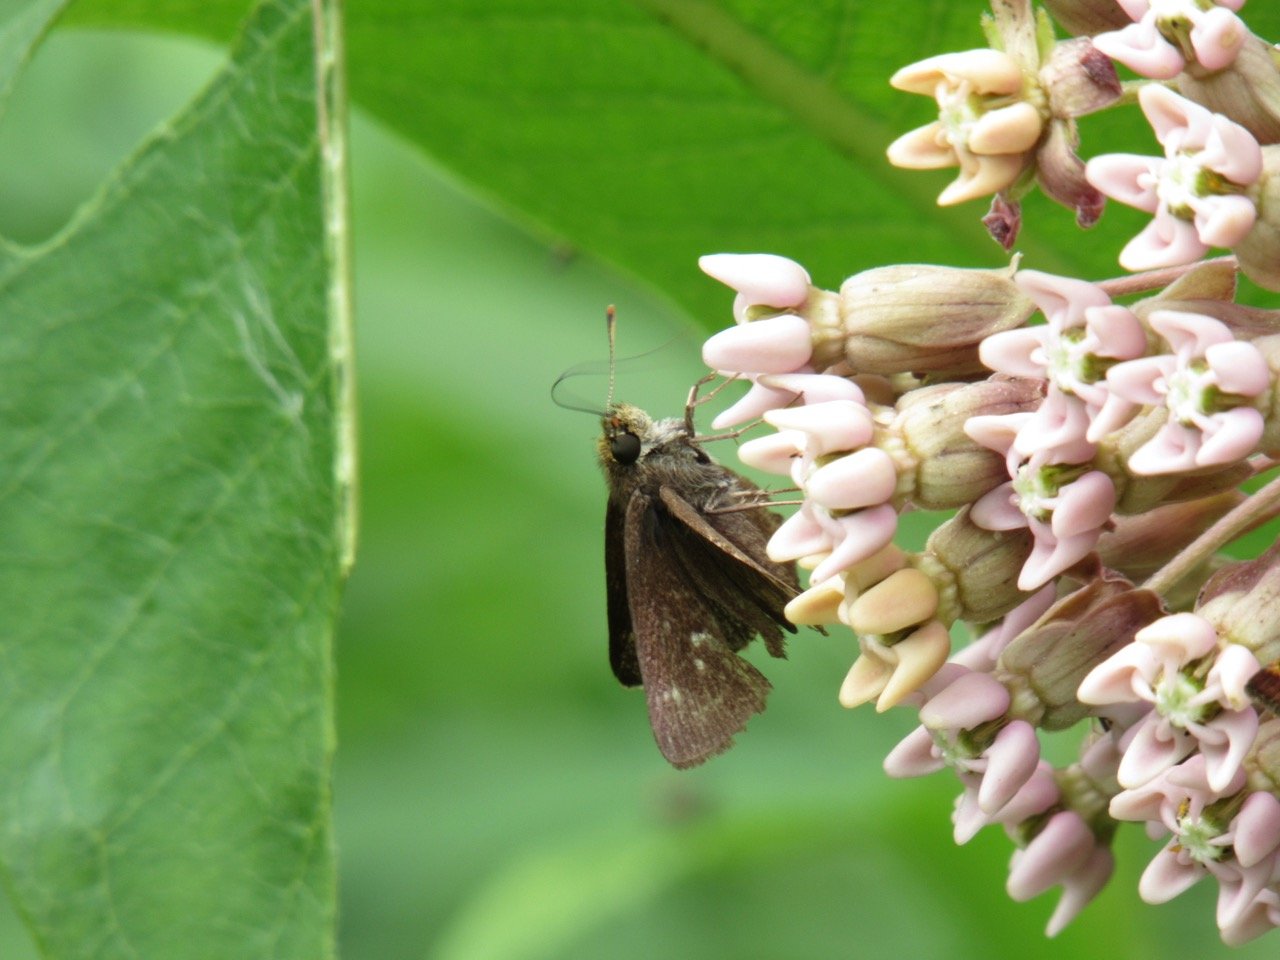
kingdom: Animalia
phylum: Arthropoda
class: Insecta
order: Lepidoptera
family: Hesperiidae
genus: Euphyes
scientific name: Euphyes vestris
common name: Dun Skipper
